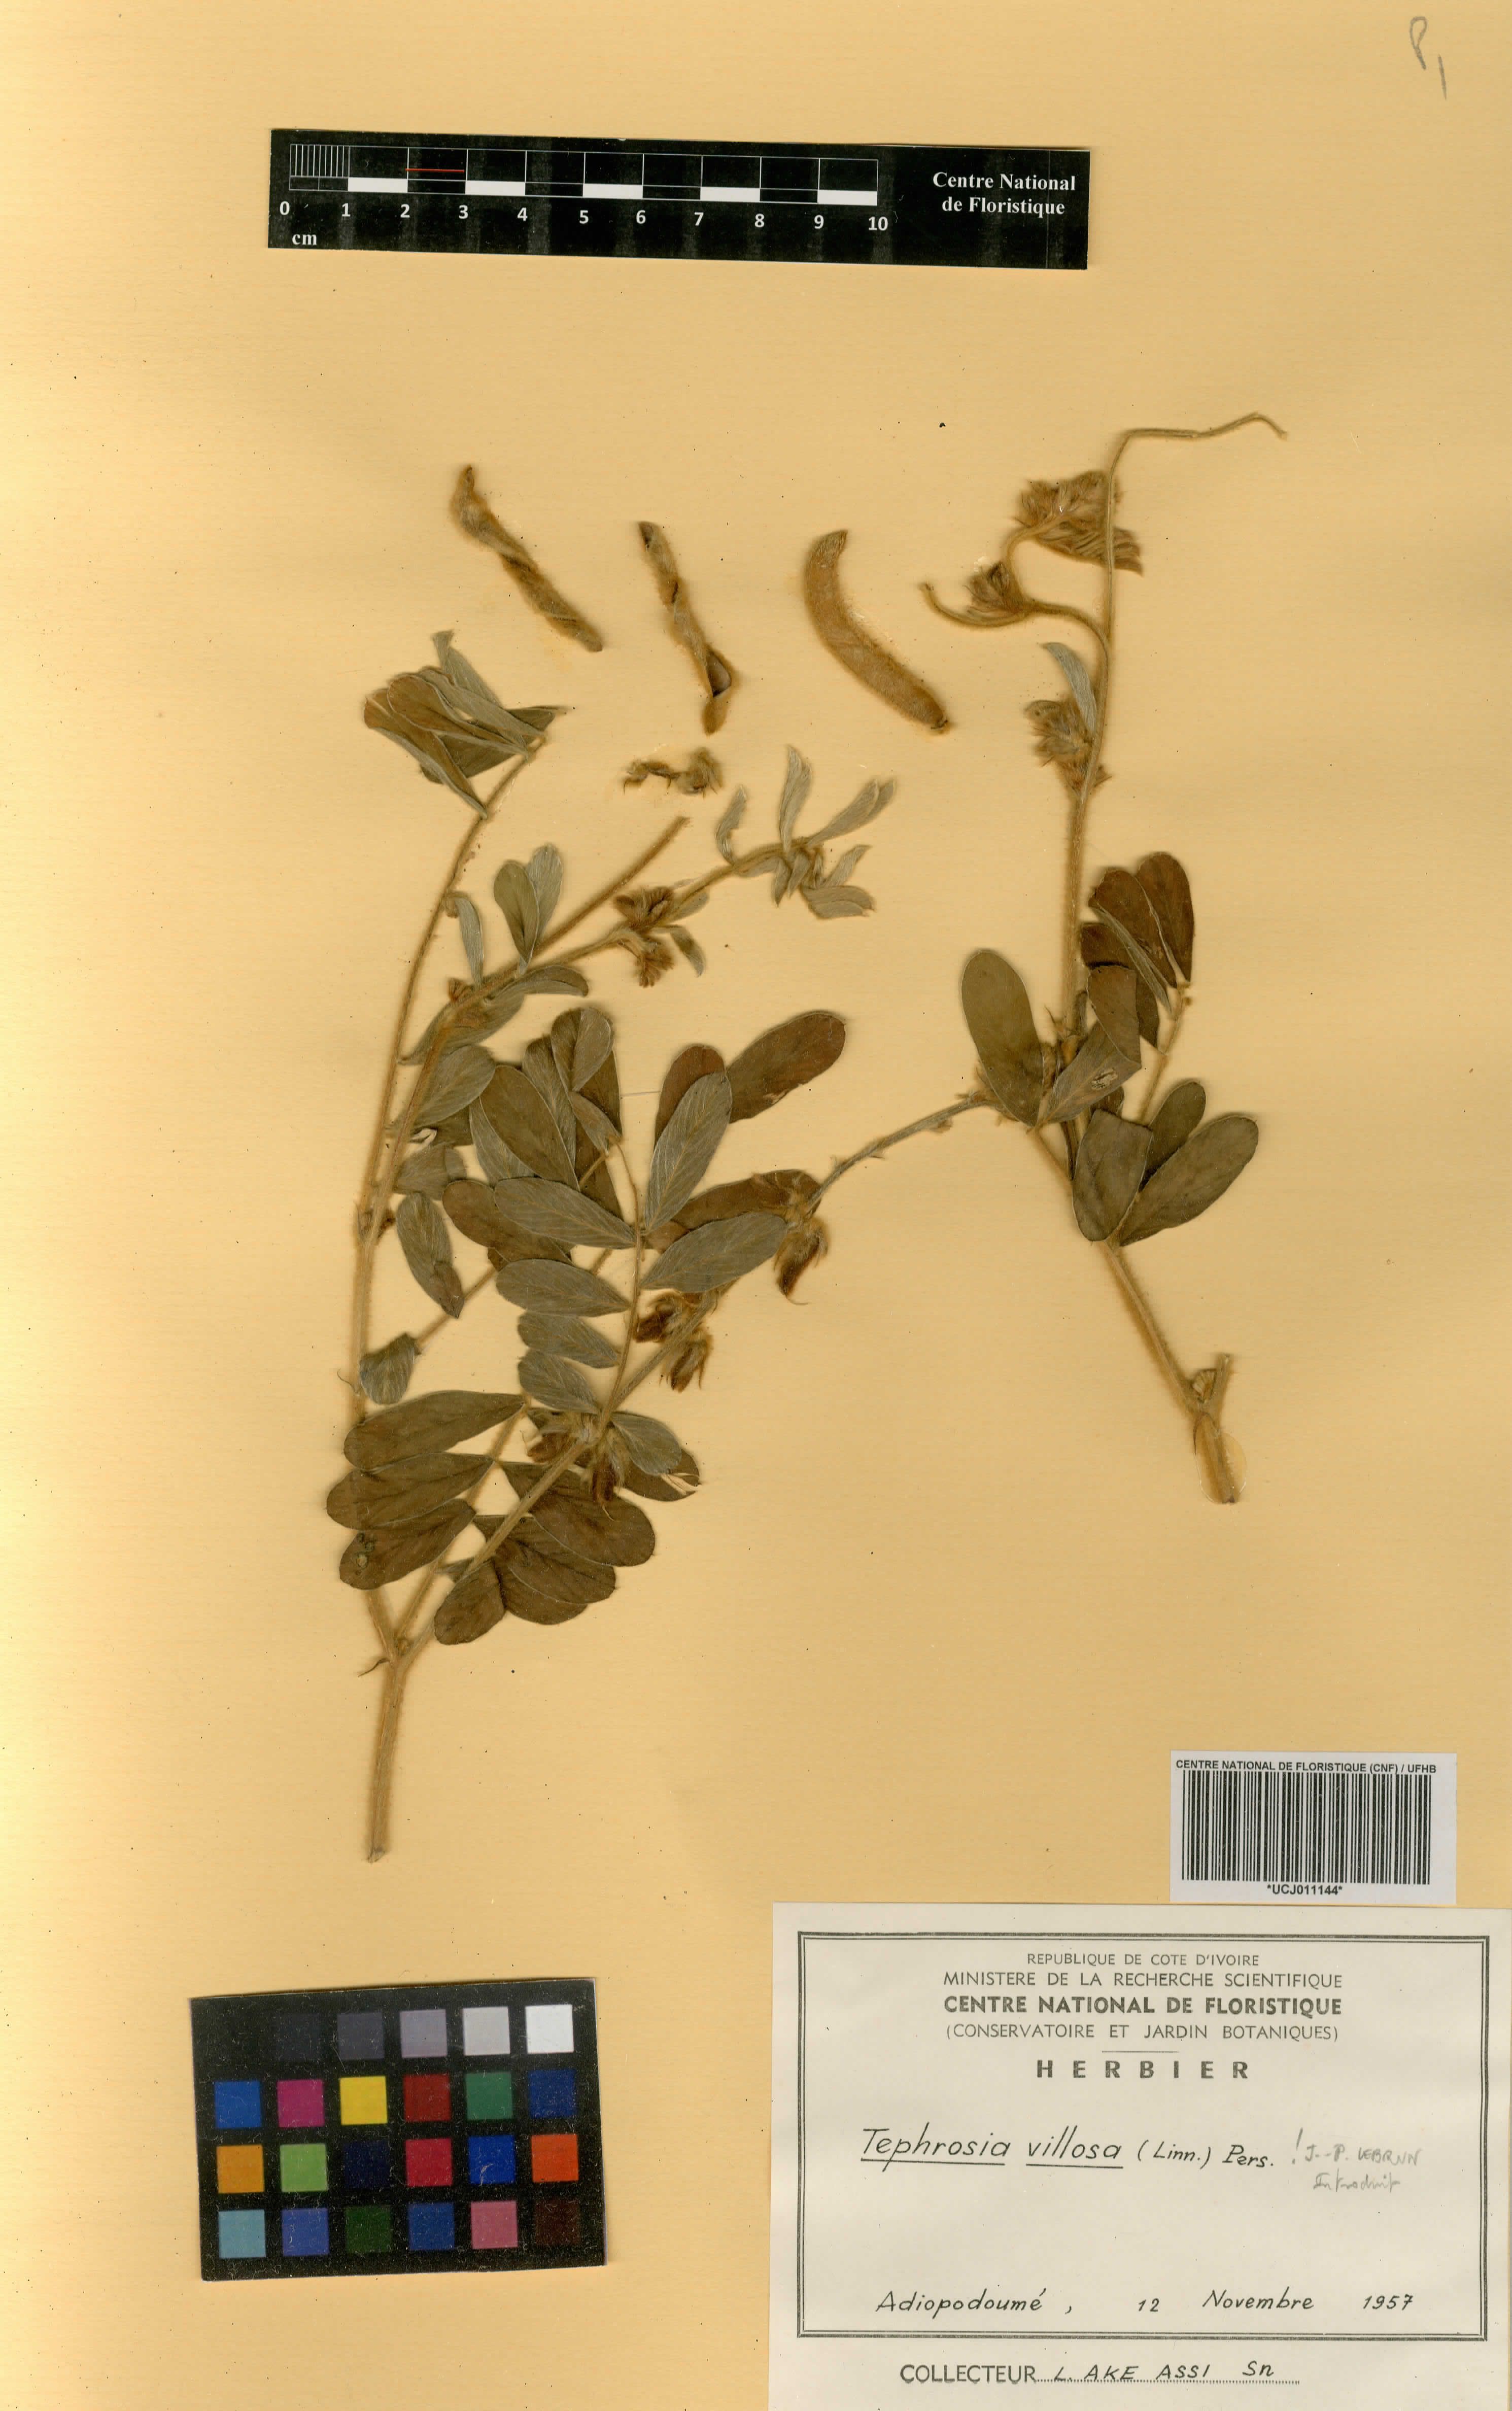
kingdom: Plantae
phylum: Tracheophyta
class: Magnoliopsida
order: Fabales
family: Fabaceae
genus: Tephrosia
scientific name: Tephrosia villosa
